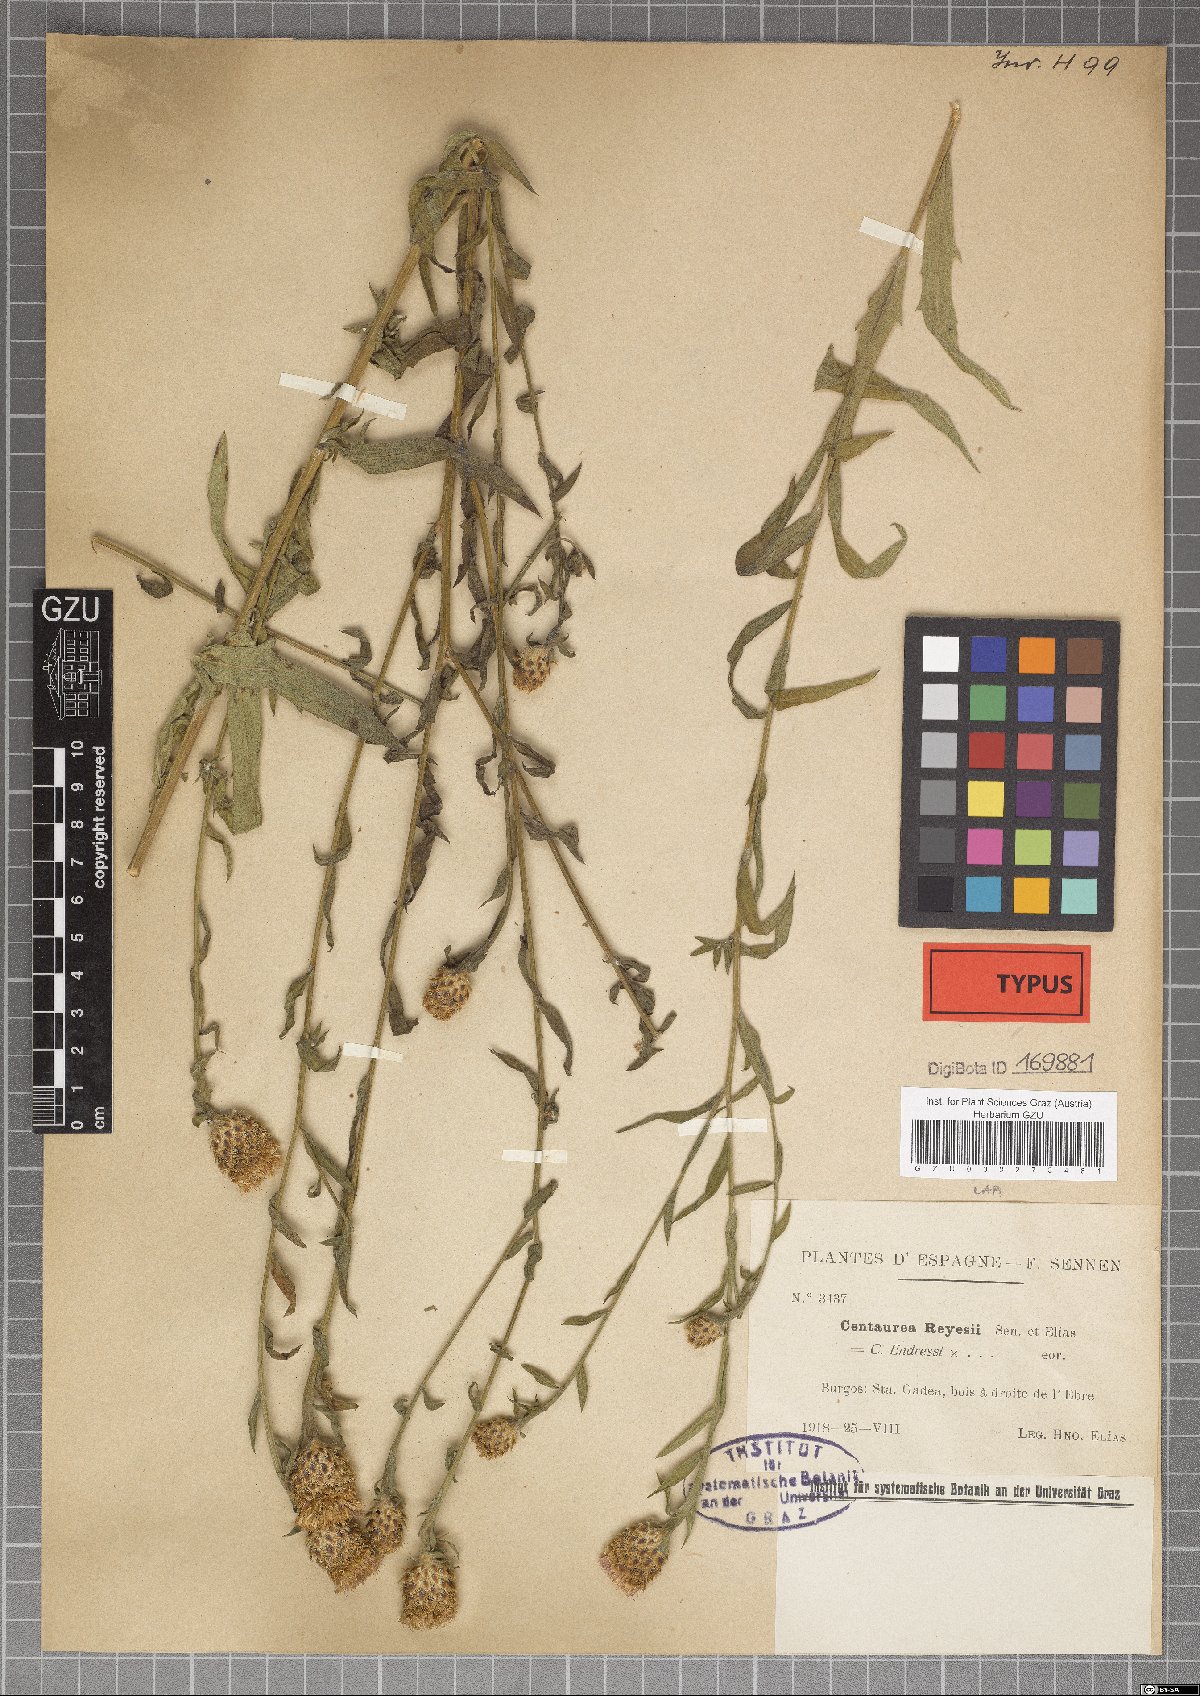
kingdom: Plantae
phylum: Tracheophyta
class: Magnoliopsida
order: Asterales
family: Asteraceae
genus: Centaurea
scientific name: Centaurea reyesii
